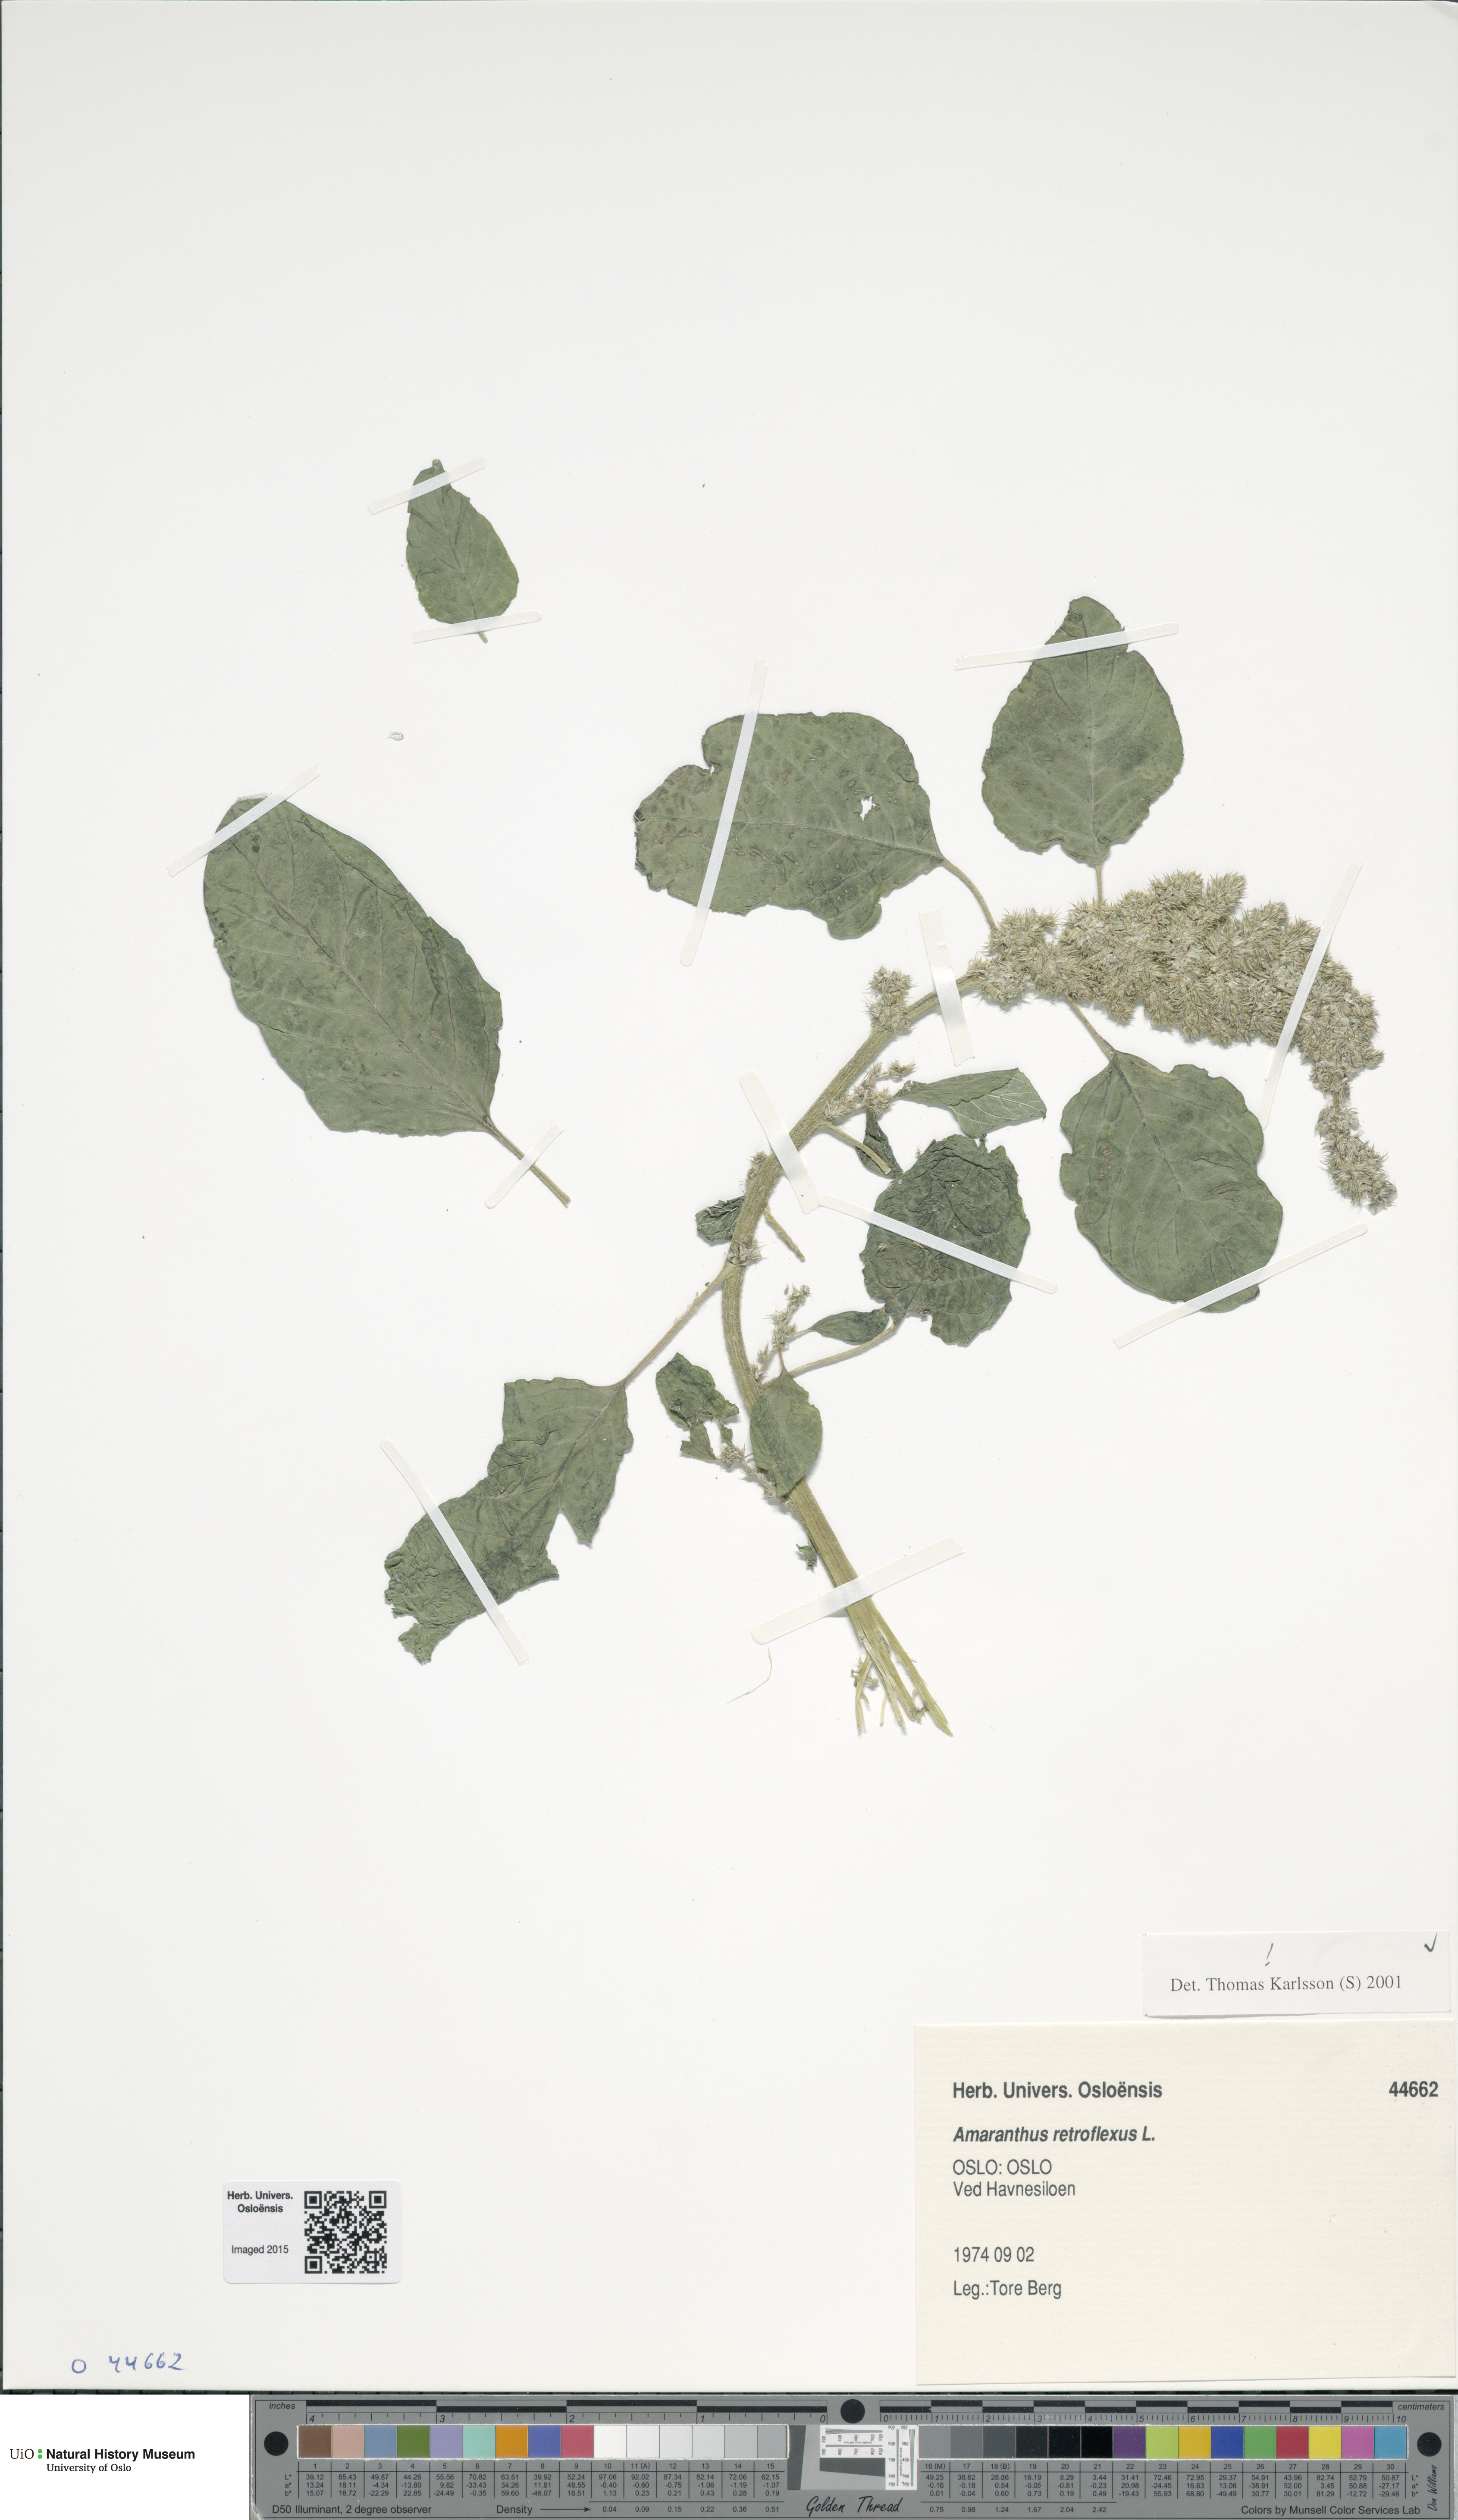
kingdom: Plantae
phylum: Tracheophyta
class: Magnoliopsida
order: Caryophyllales
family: Amaranthaceae
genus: Amaranthus
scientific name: Amaranthus retroflexus
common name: Redroot amaranth
